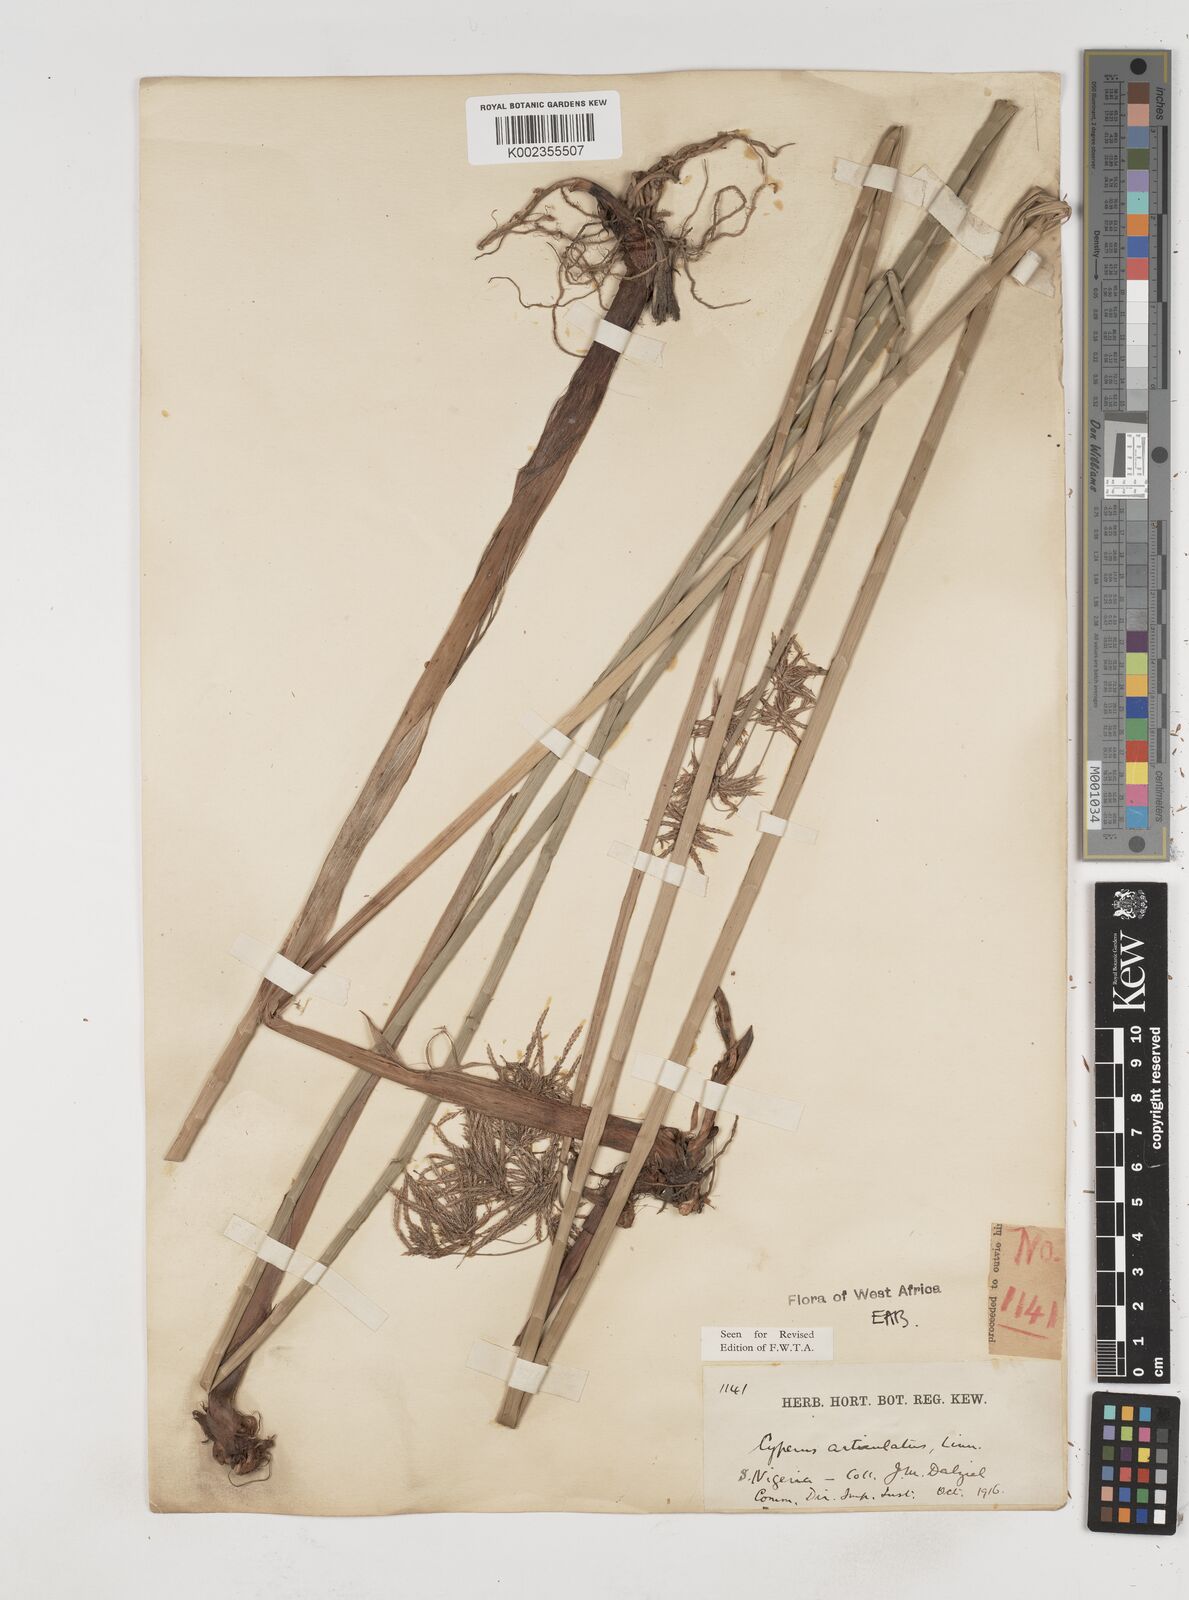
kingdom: Plantae
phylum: Tracheophyta
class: Liliopsida
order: Poales
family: Cyperaceae
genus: Cyperus
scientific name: Cyperus articulatus
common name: Jointed flatsedge
